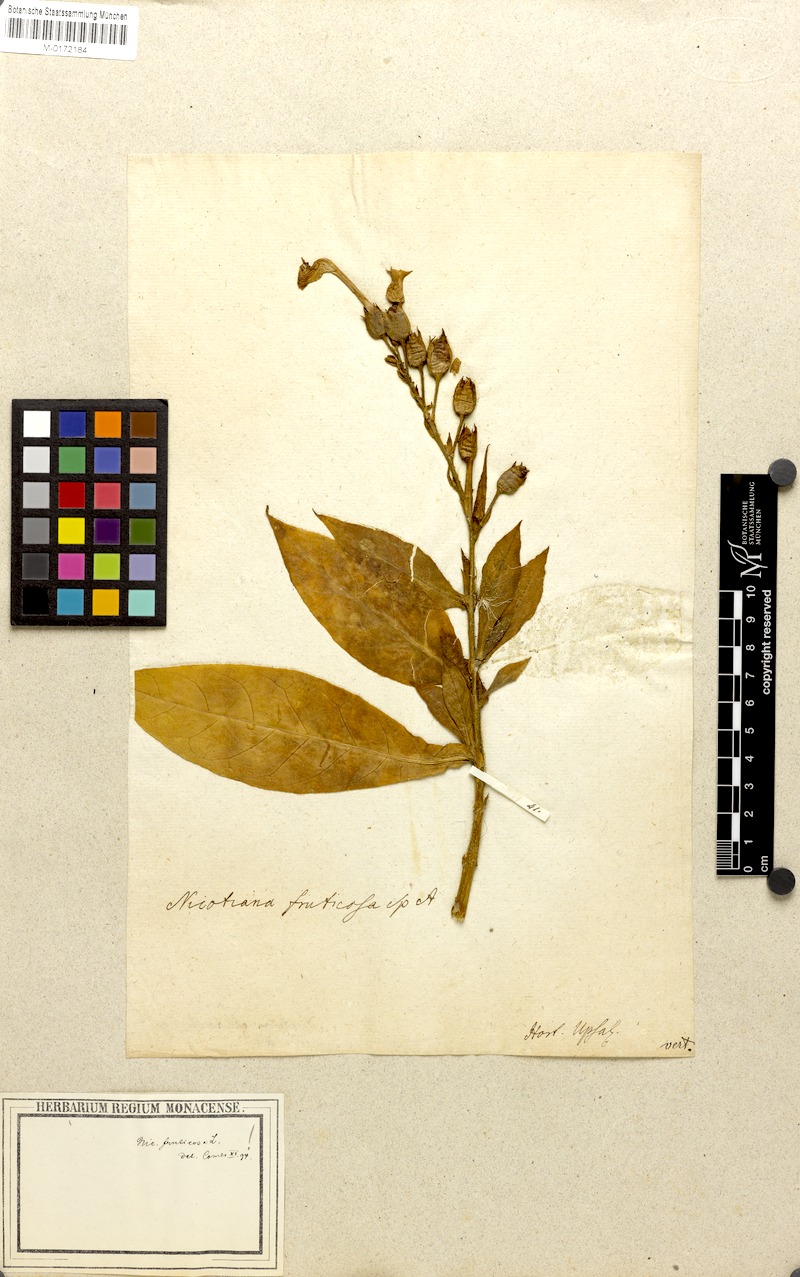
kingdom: Plantae
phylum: Tracheophyta
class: Magnoliopsida
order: Solanales
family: Solanaceae
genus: Nicotiana
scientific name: Nicotiana tabacum
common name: Tobacco
